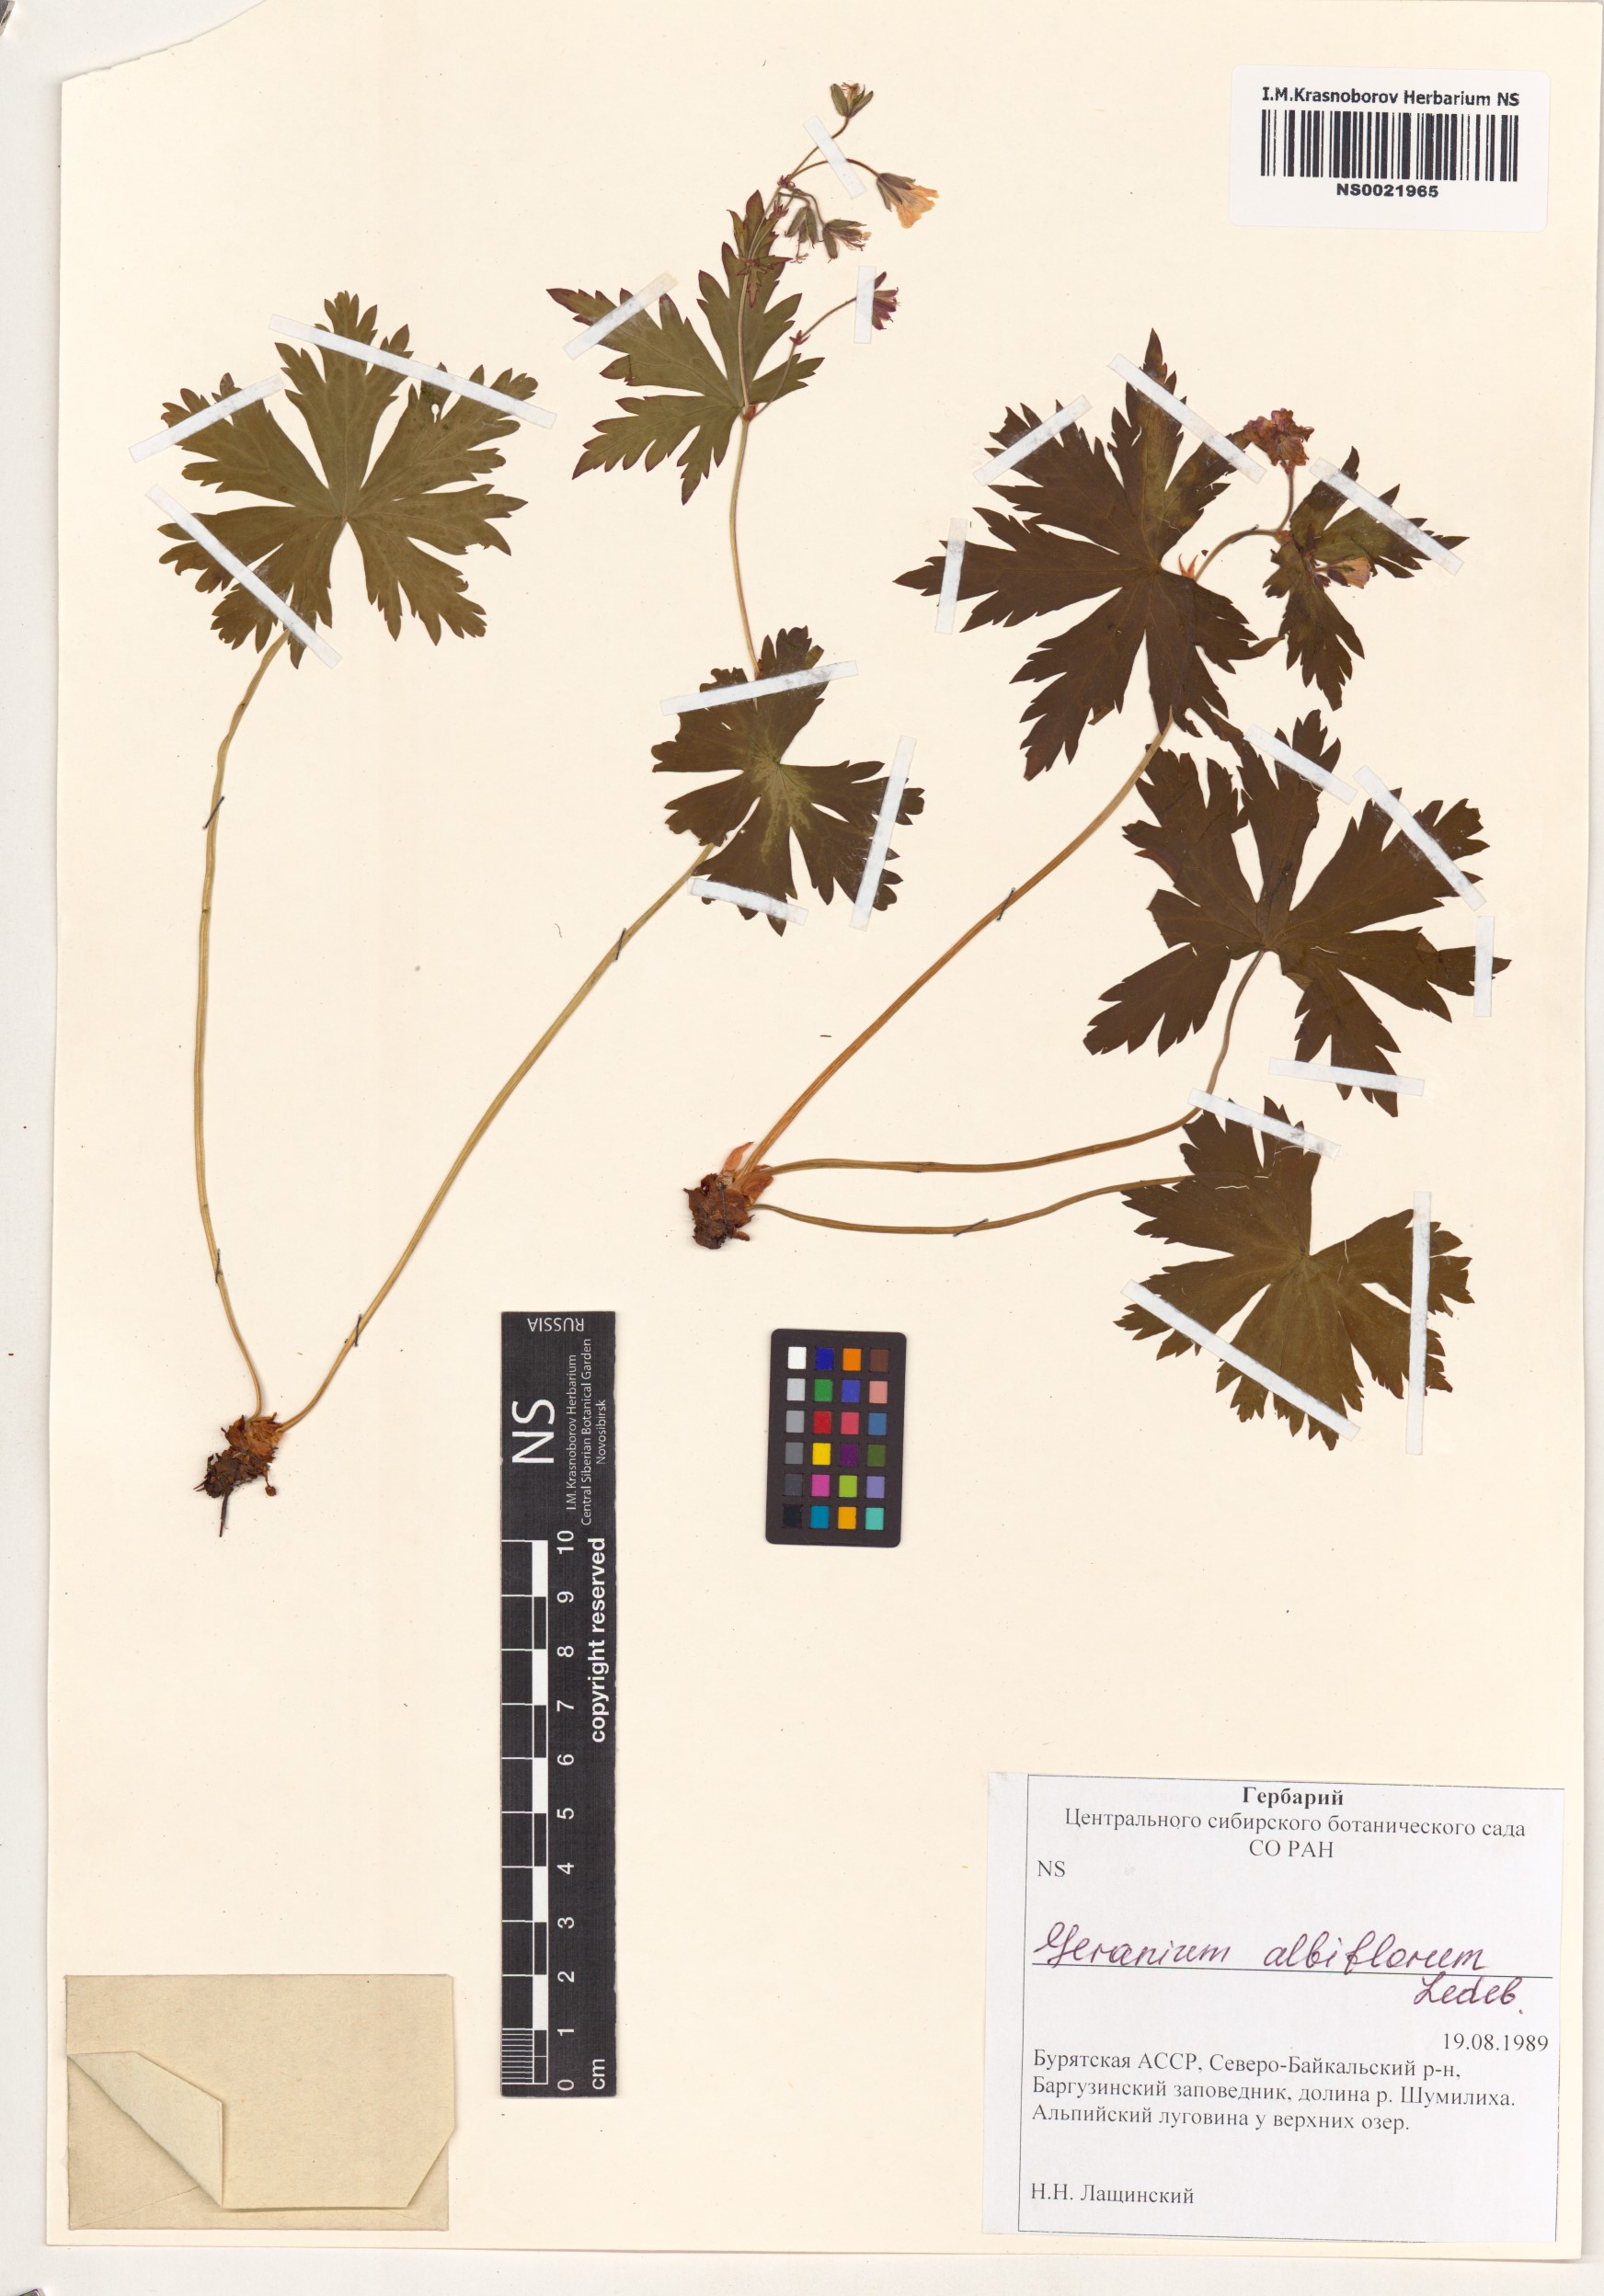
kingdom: Plantae
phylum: Tracheophyta
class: Magnoliopsida
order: Geraniales
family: Geraniaceae
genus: Geranium
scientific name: Geranium albiflorum
